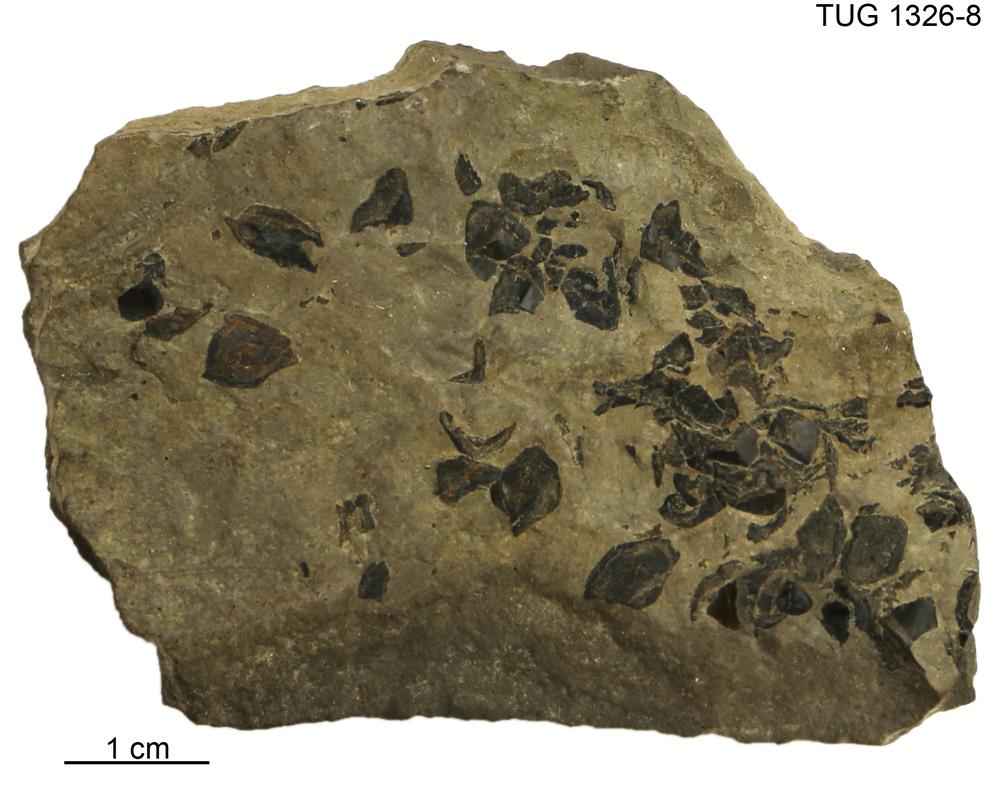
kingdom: Animalia
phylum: Chordata
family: Osteolepididae
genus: Osteolepis
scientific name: Osteolepis
